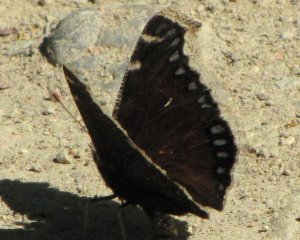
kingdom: Animalia
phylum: Arthropoda
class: Insecta
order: Lepidoptera
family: Nymphalidae
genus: Nymphalis
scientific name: Nymphalis antiopa
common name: Mourning Cloak
